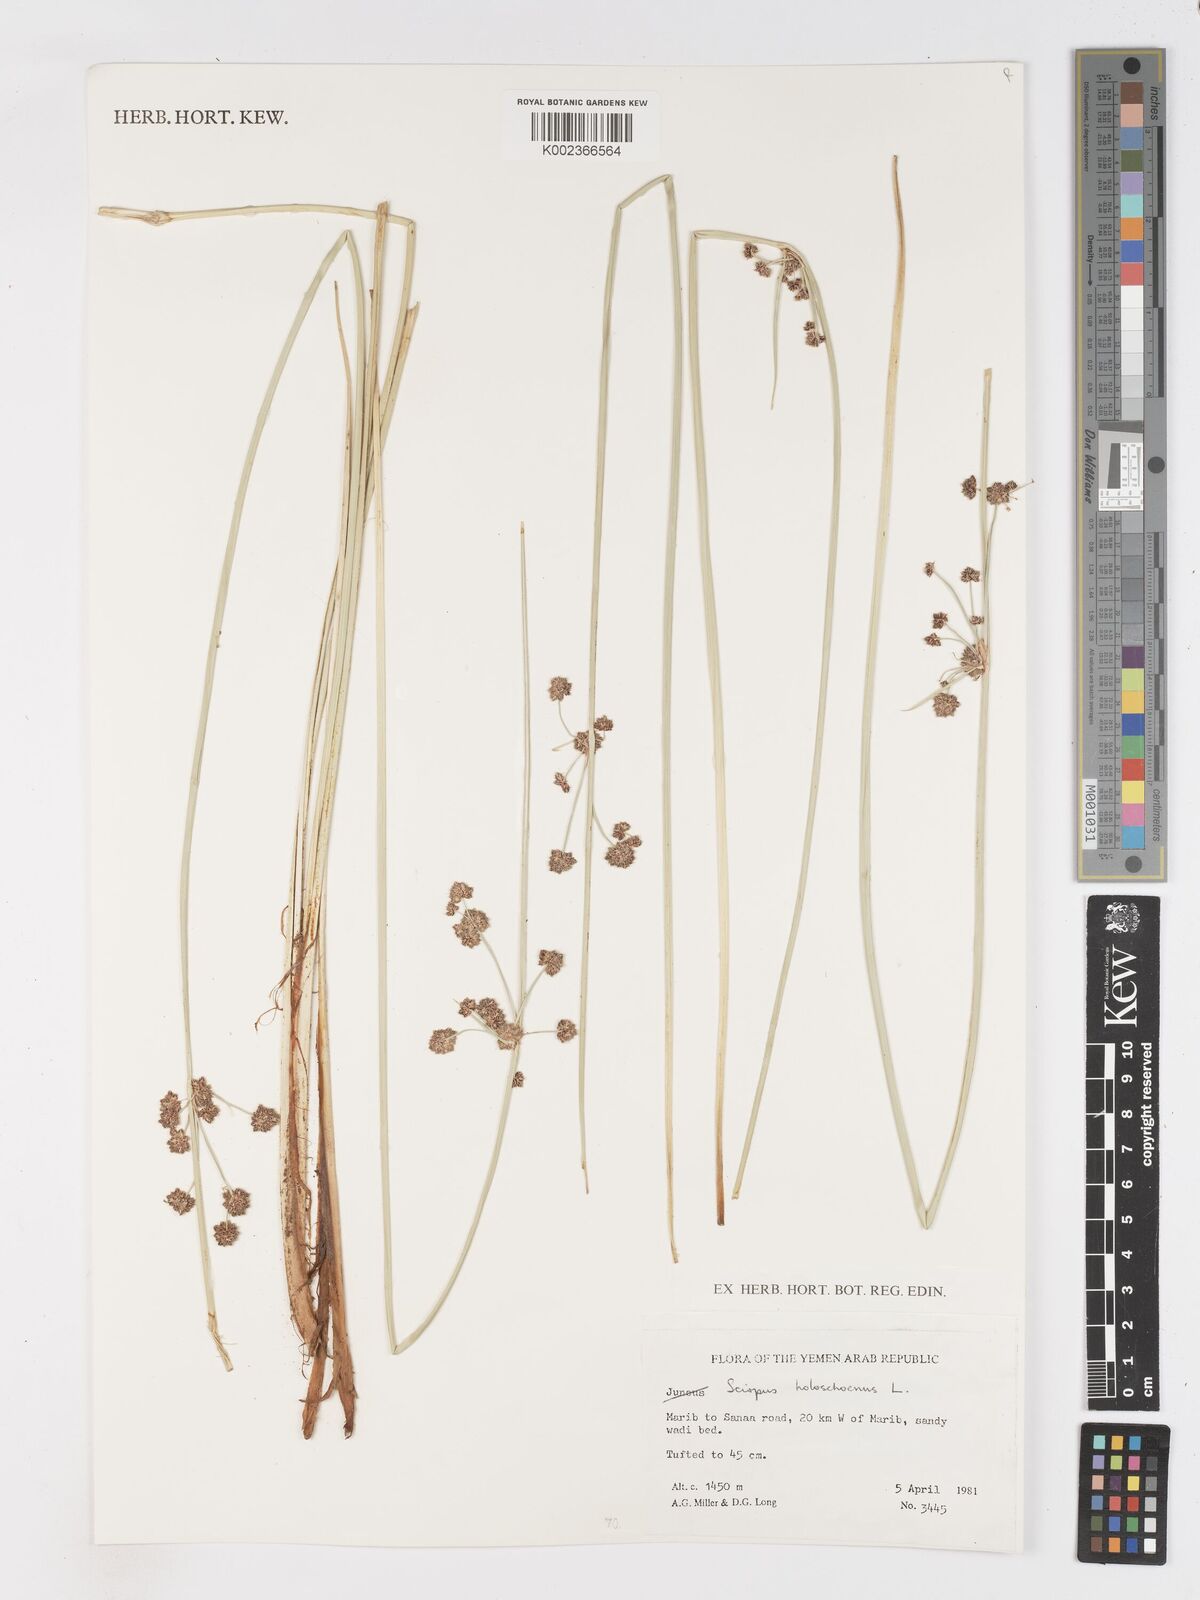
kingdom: Plantae
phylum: Tracheophyta
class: Liliopsida
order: Poales
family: Cyperaceae
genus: Scirpoides
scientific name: Scirpoides holoschoenus
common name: Round-headed club-rush
